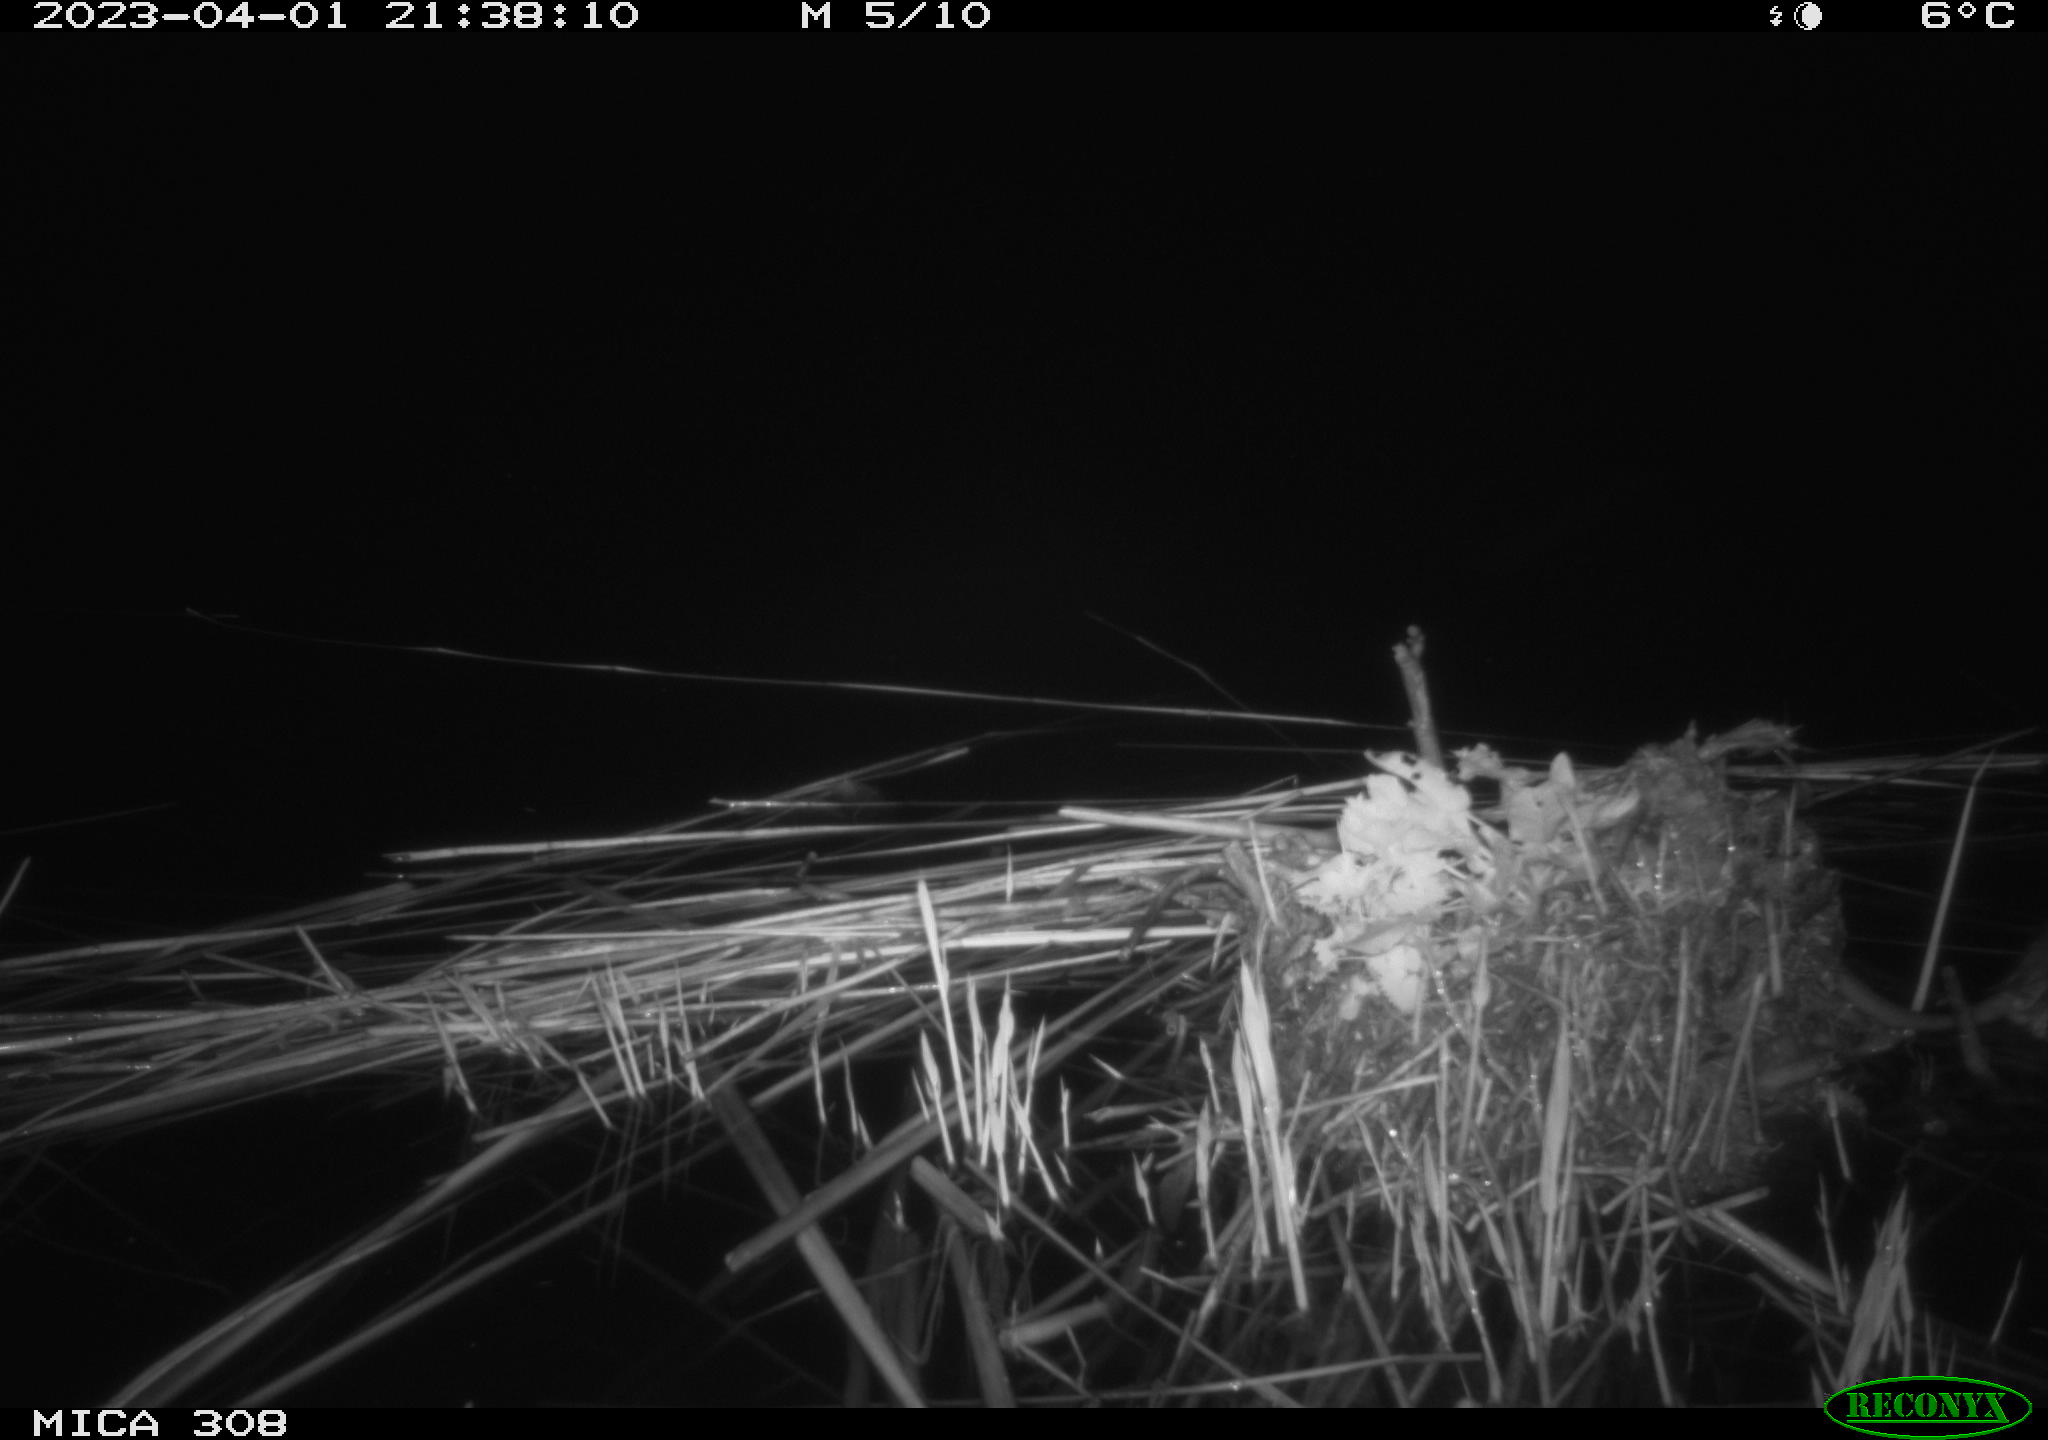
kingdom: Animalia
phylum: Chordata
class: Mammalia
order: Rodentia
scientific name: Rodentia
